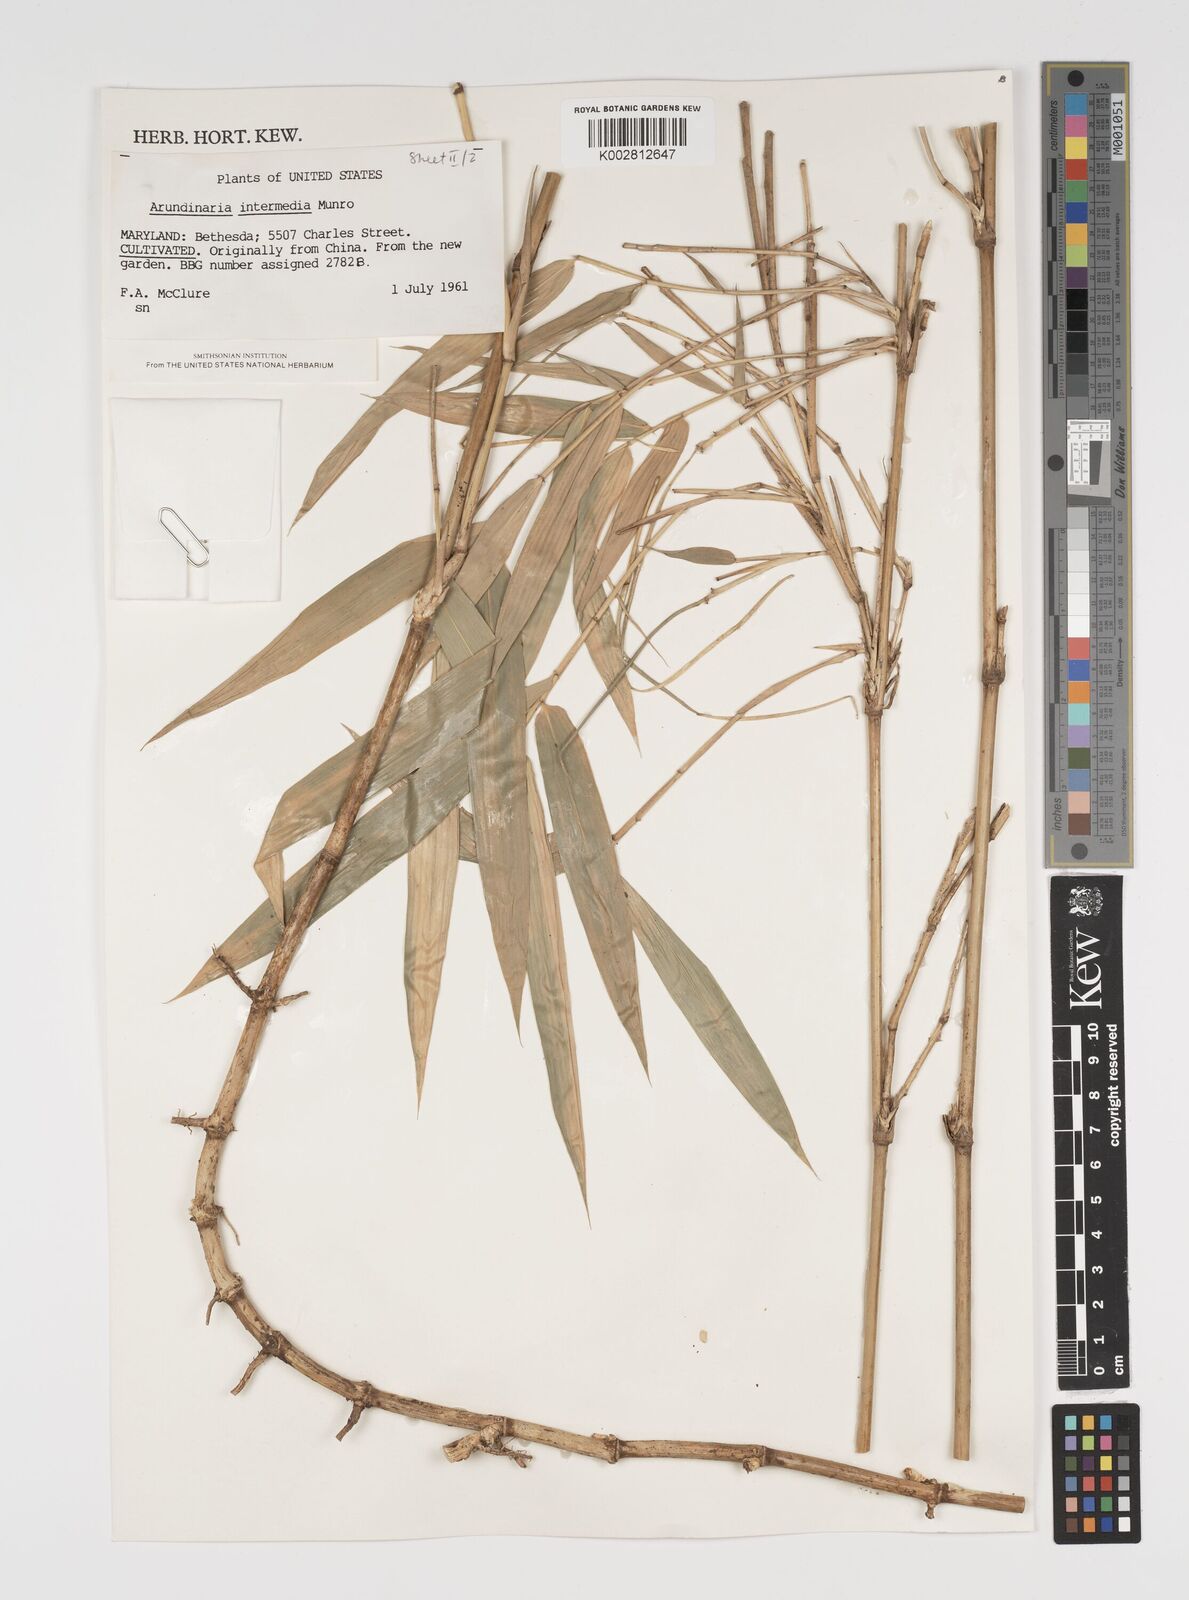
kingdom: Plantae
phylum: Tracheophyta
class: Liliopsida
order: Poales
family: Poaceae
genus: Arundinaria
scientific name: Arundinaria
